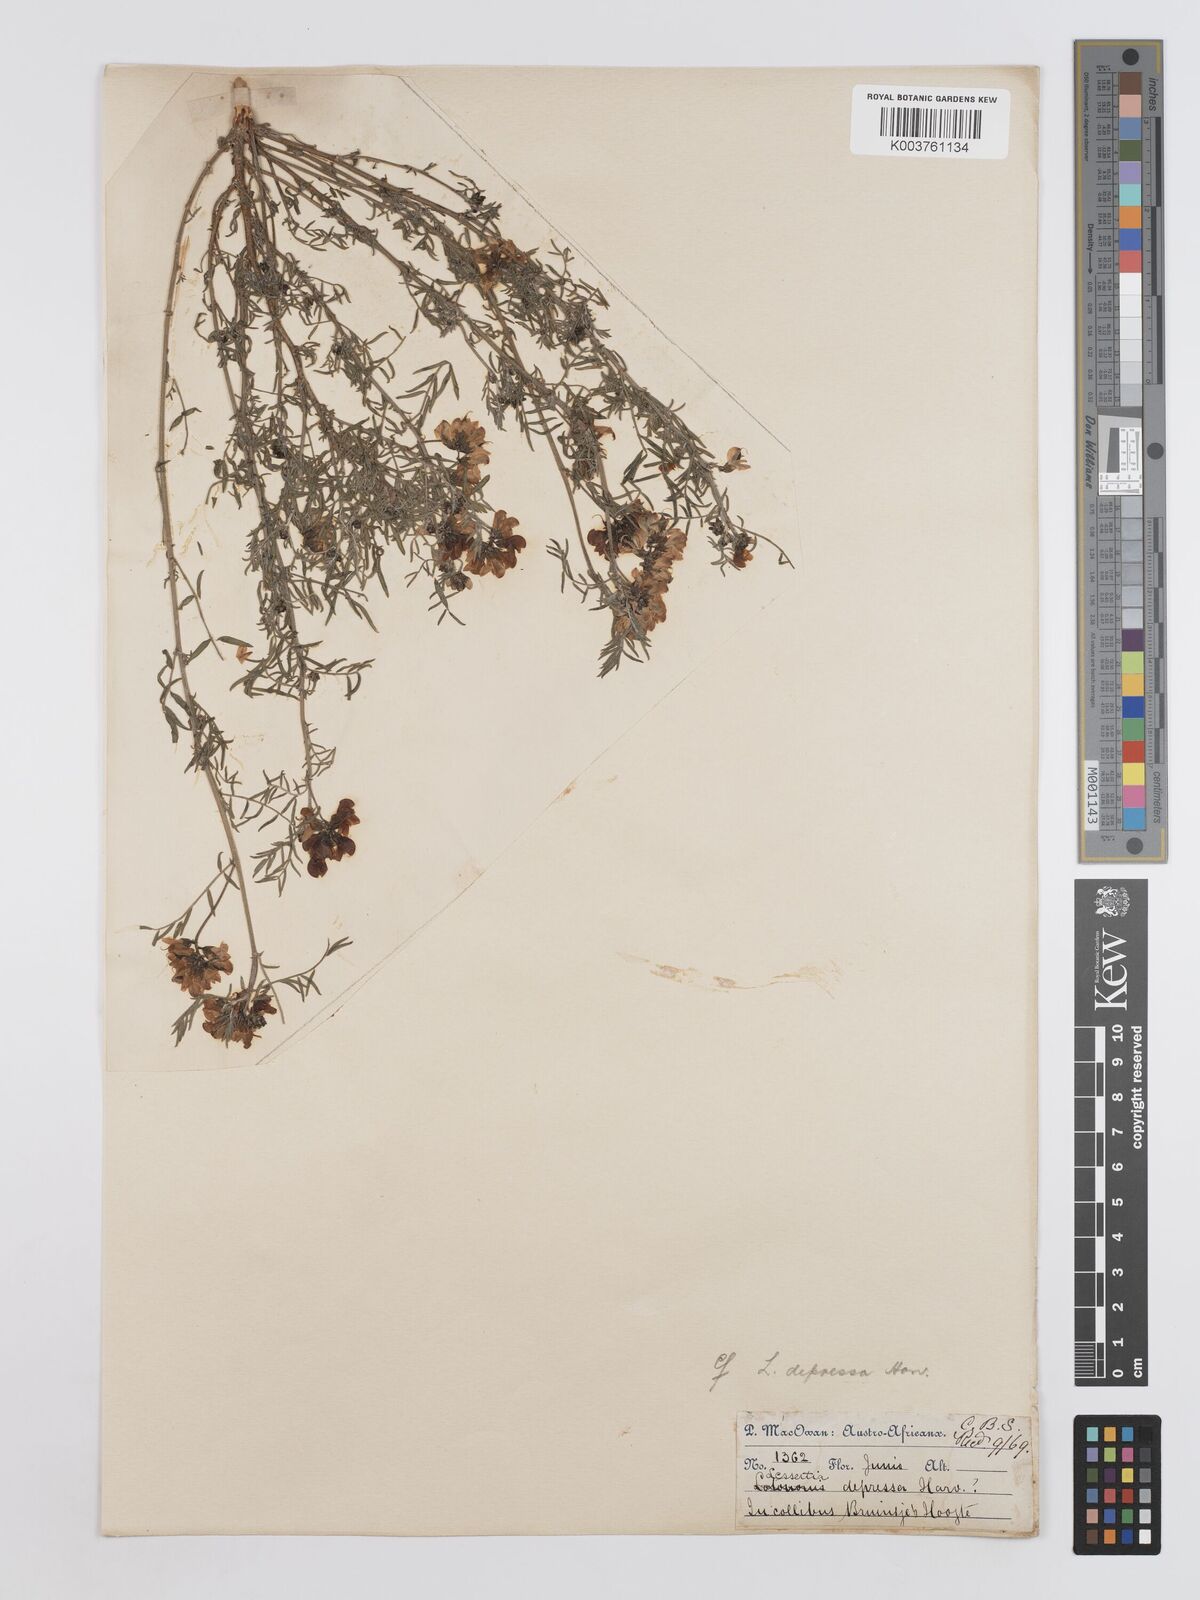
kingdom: Plantae
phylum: Tracheophyta
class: Magnoliopsida
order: Fabales
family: Fabaceae
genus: Lessertia
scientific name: Lessertia depressa
